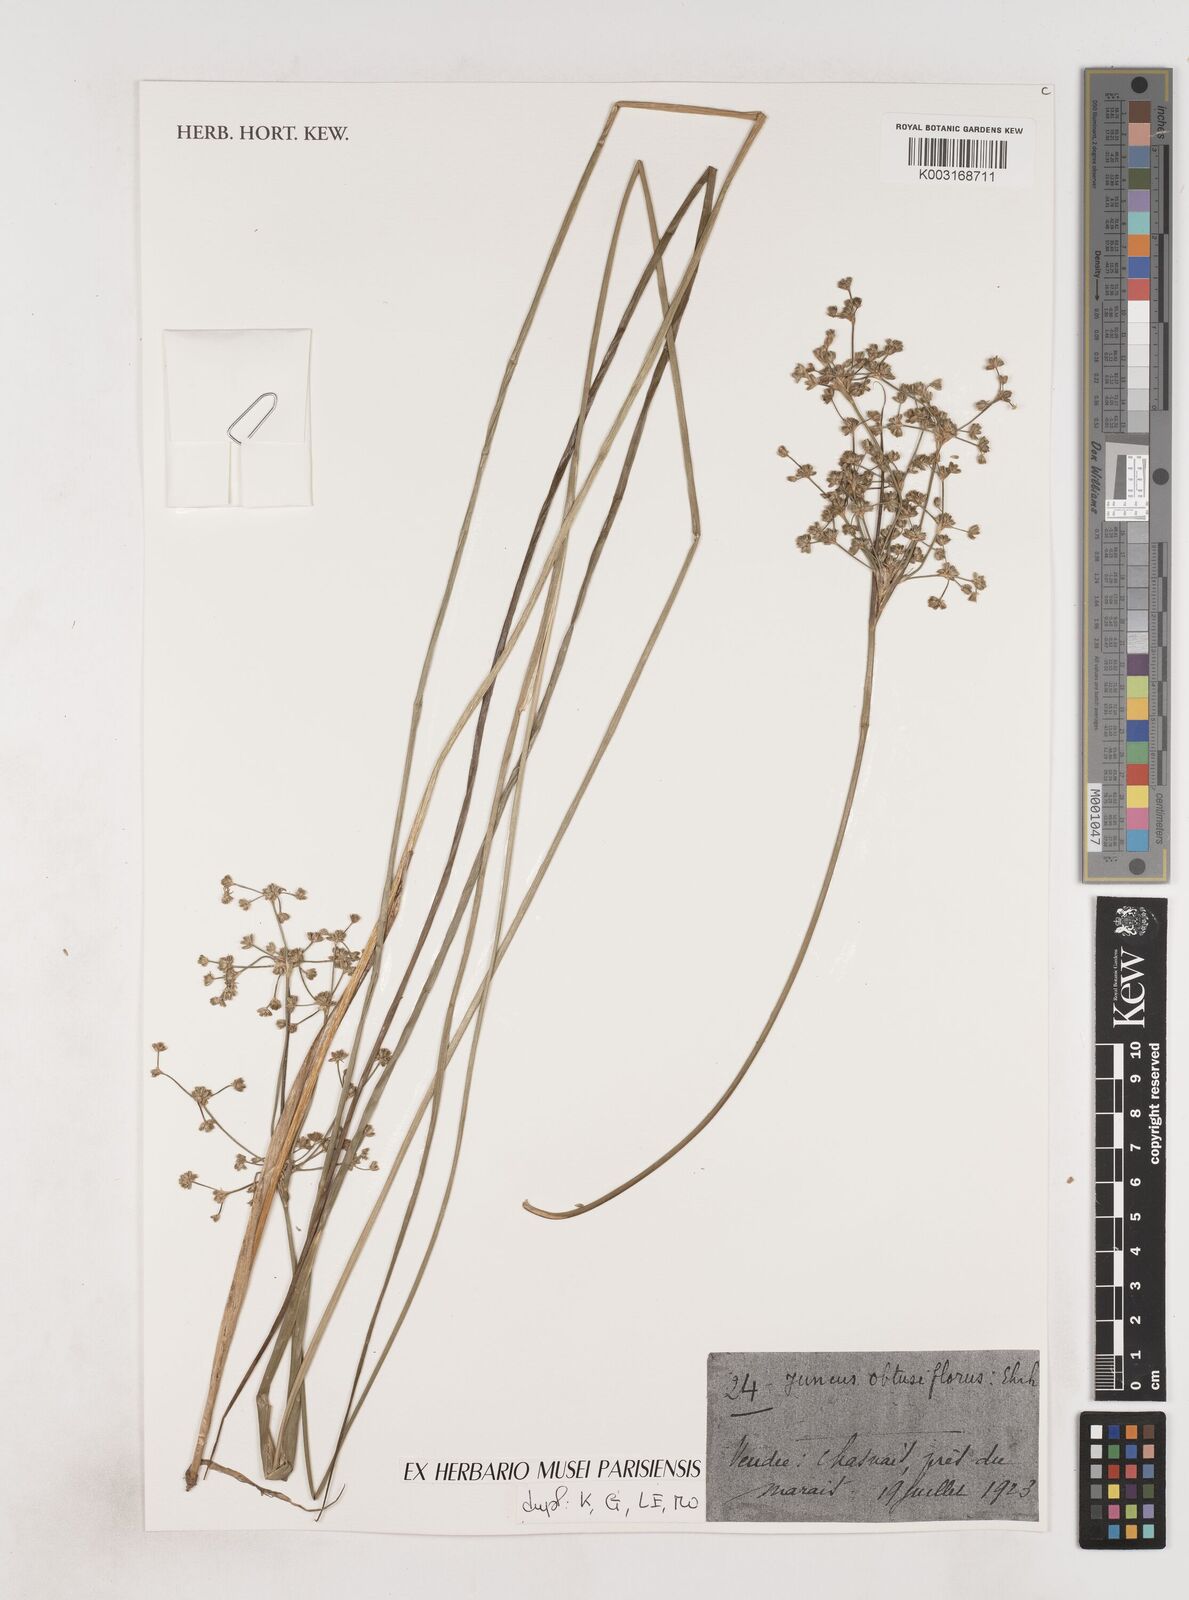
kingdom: Plantae
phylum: Tracheophyta
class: Liliopsida
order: Poales
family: Juncaceae
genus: Juncus
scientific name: Juncus subnodulosus
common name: Blunt-flowered rush
